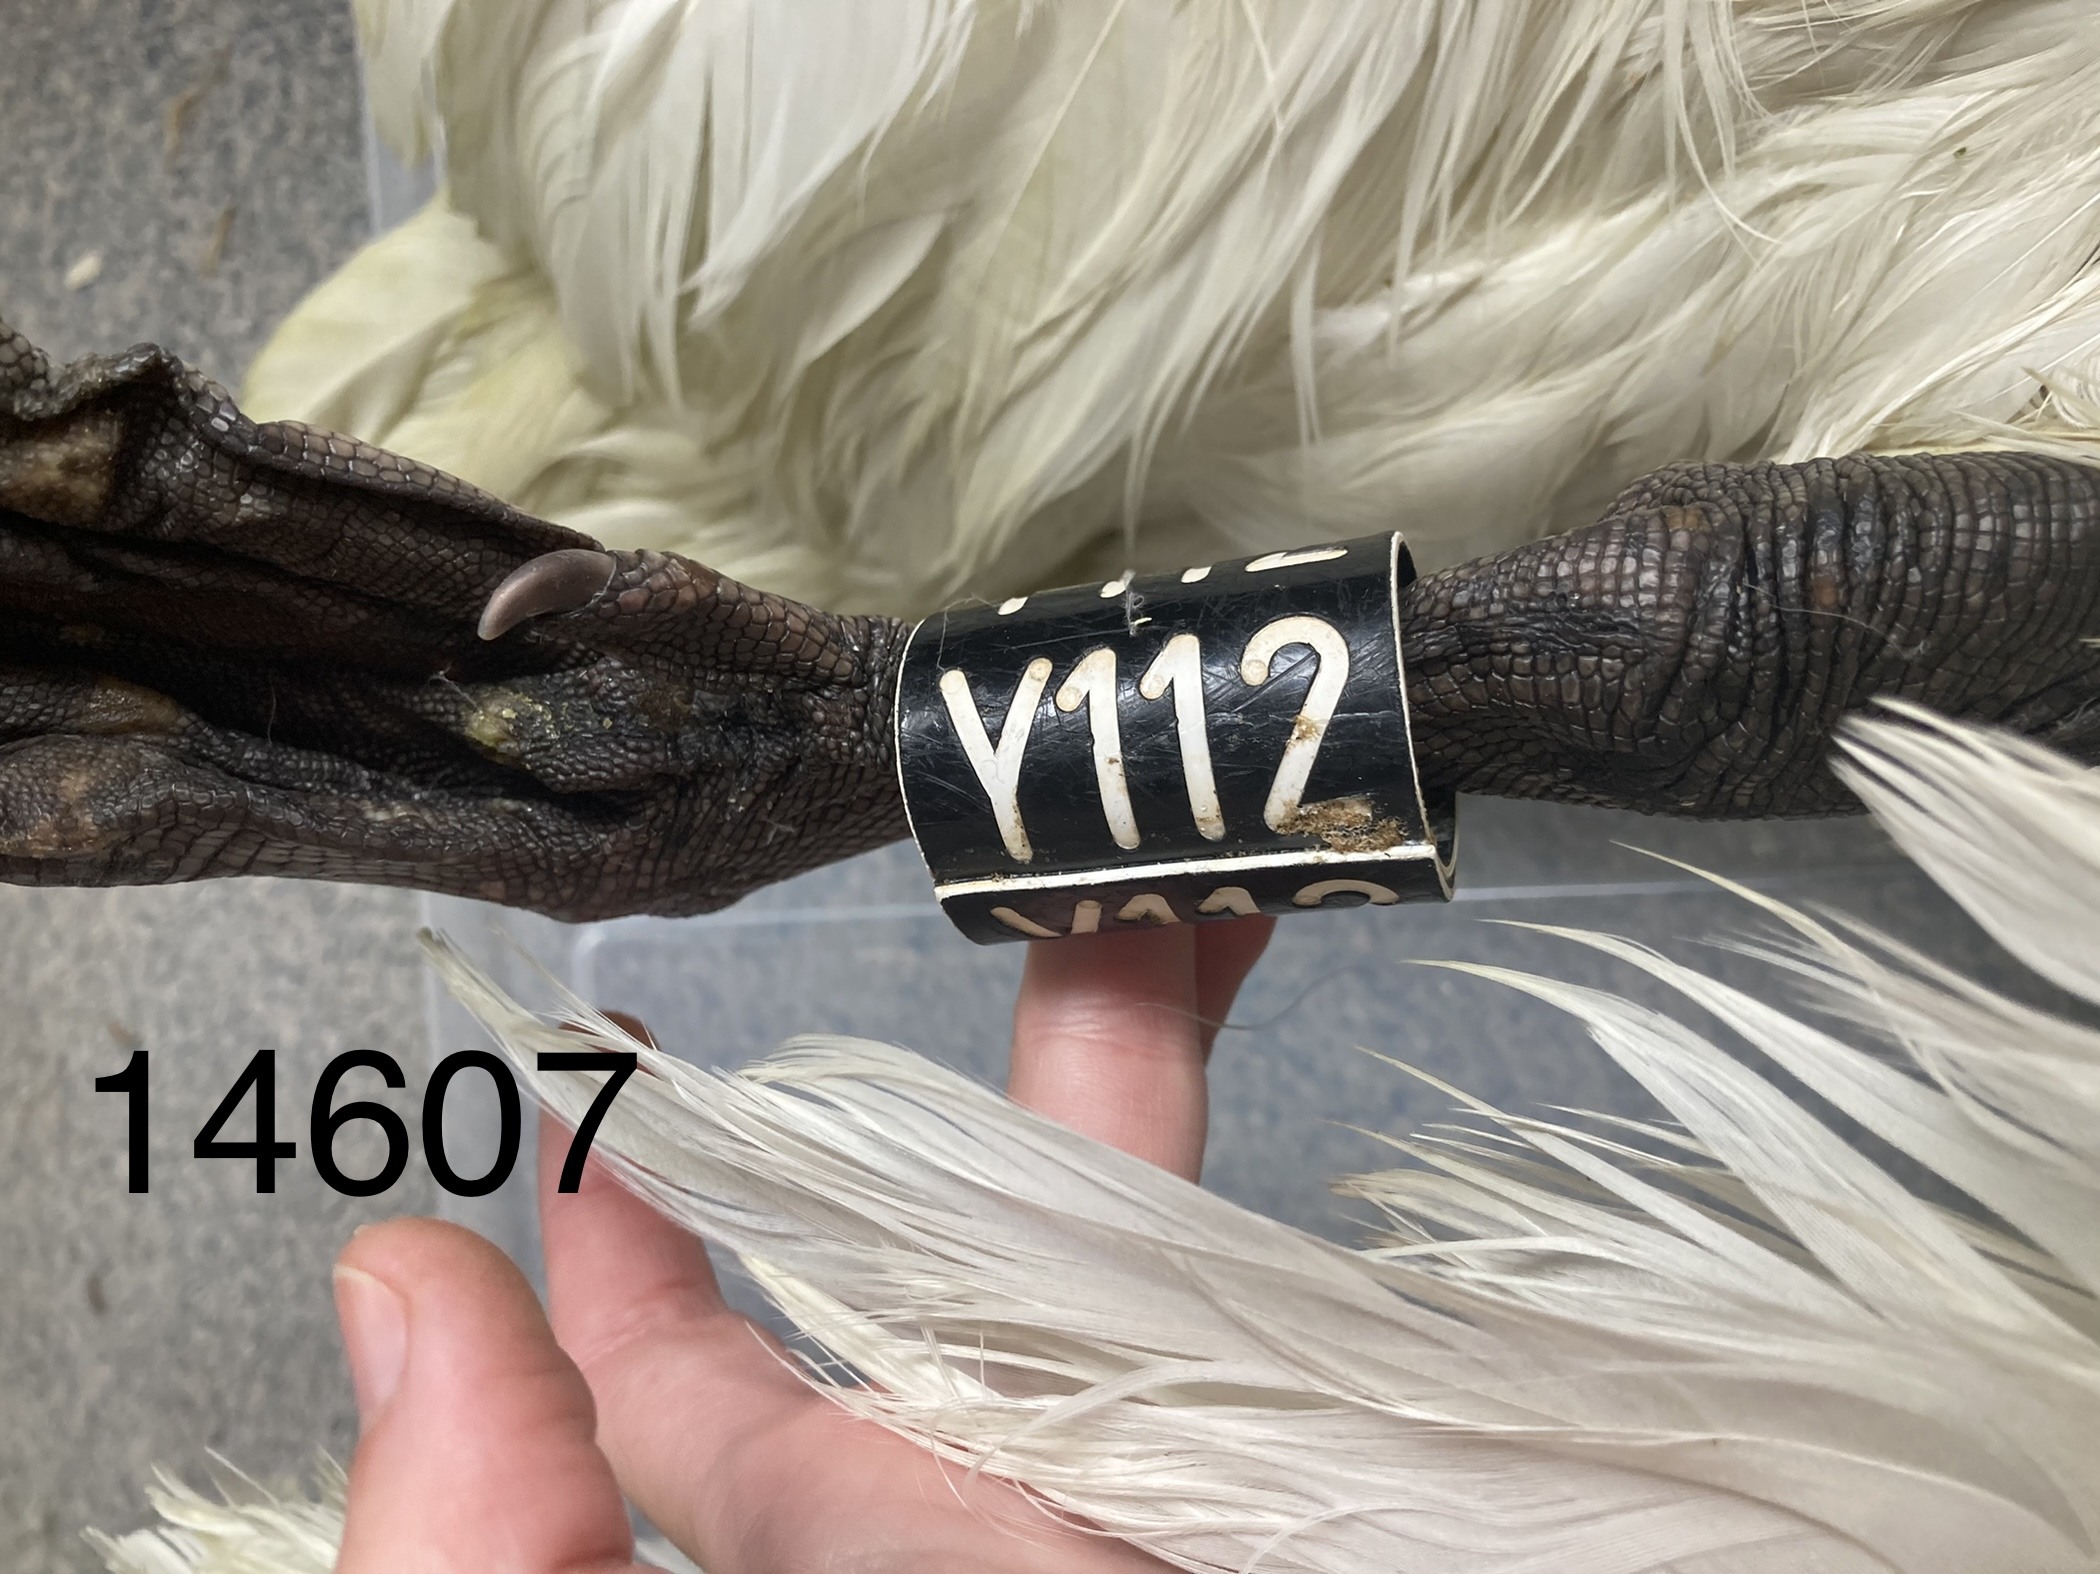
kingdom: Animalia
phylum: Chordata
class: Aves
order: Anseriformes
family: Anatidae
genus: Cygnus
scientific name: Cygnus olor
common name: Mute swan
